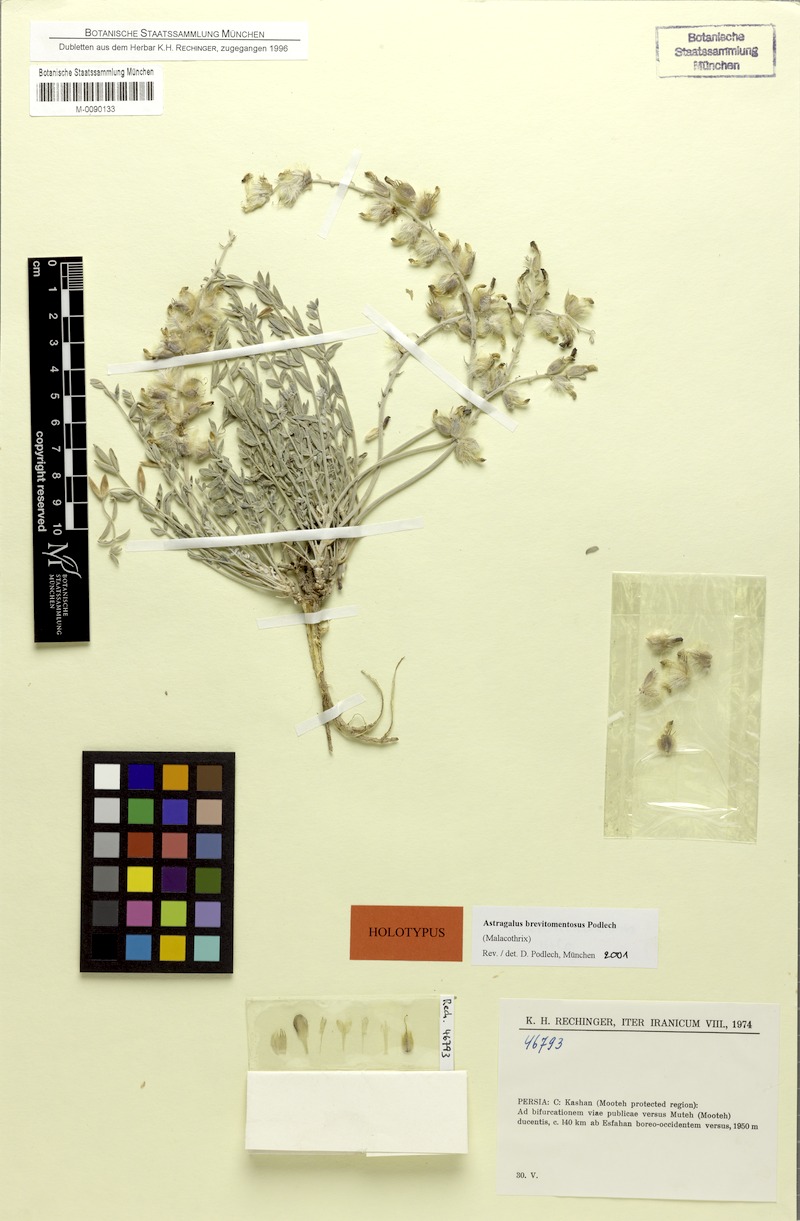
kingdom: Plantae
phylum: Tracheophyta
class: Magnoliopsida
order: Fabales
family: Fabaceae
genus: Astragalus
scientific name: Astragalus brevitomentosus
